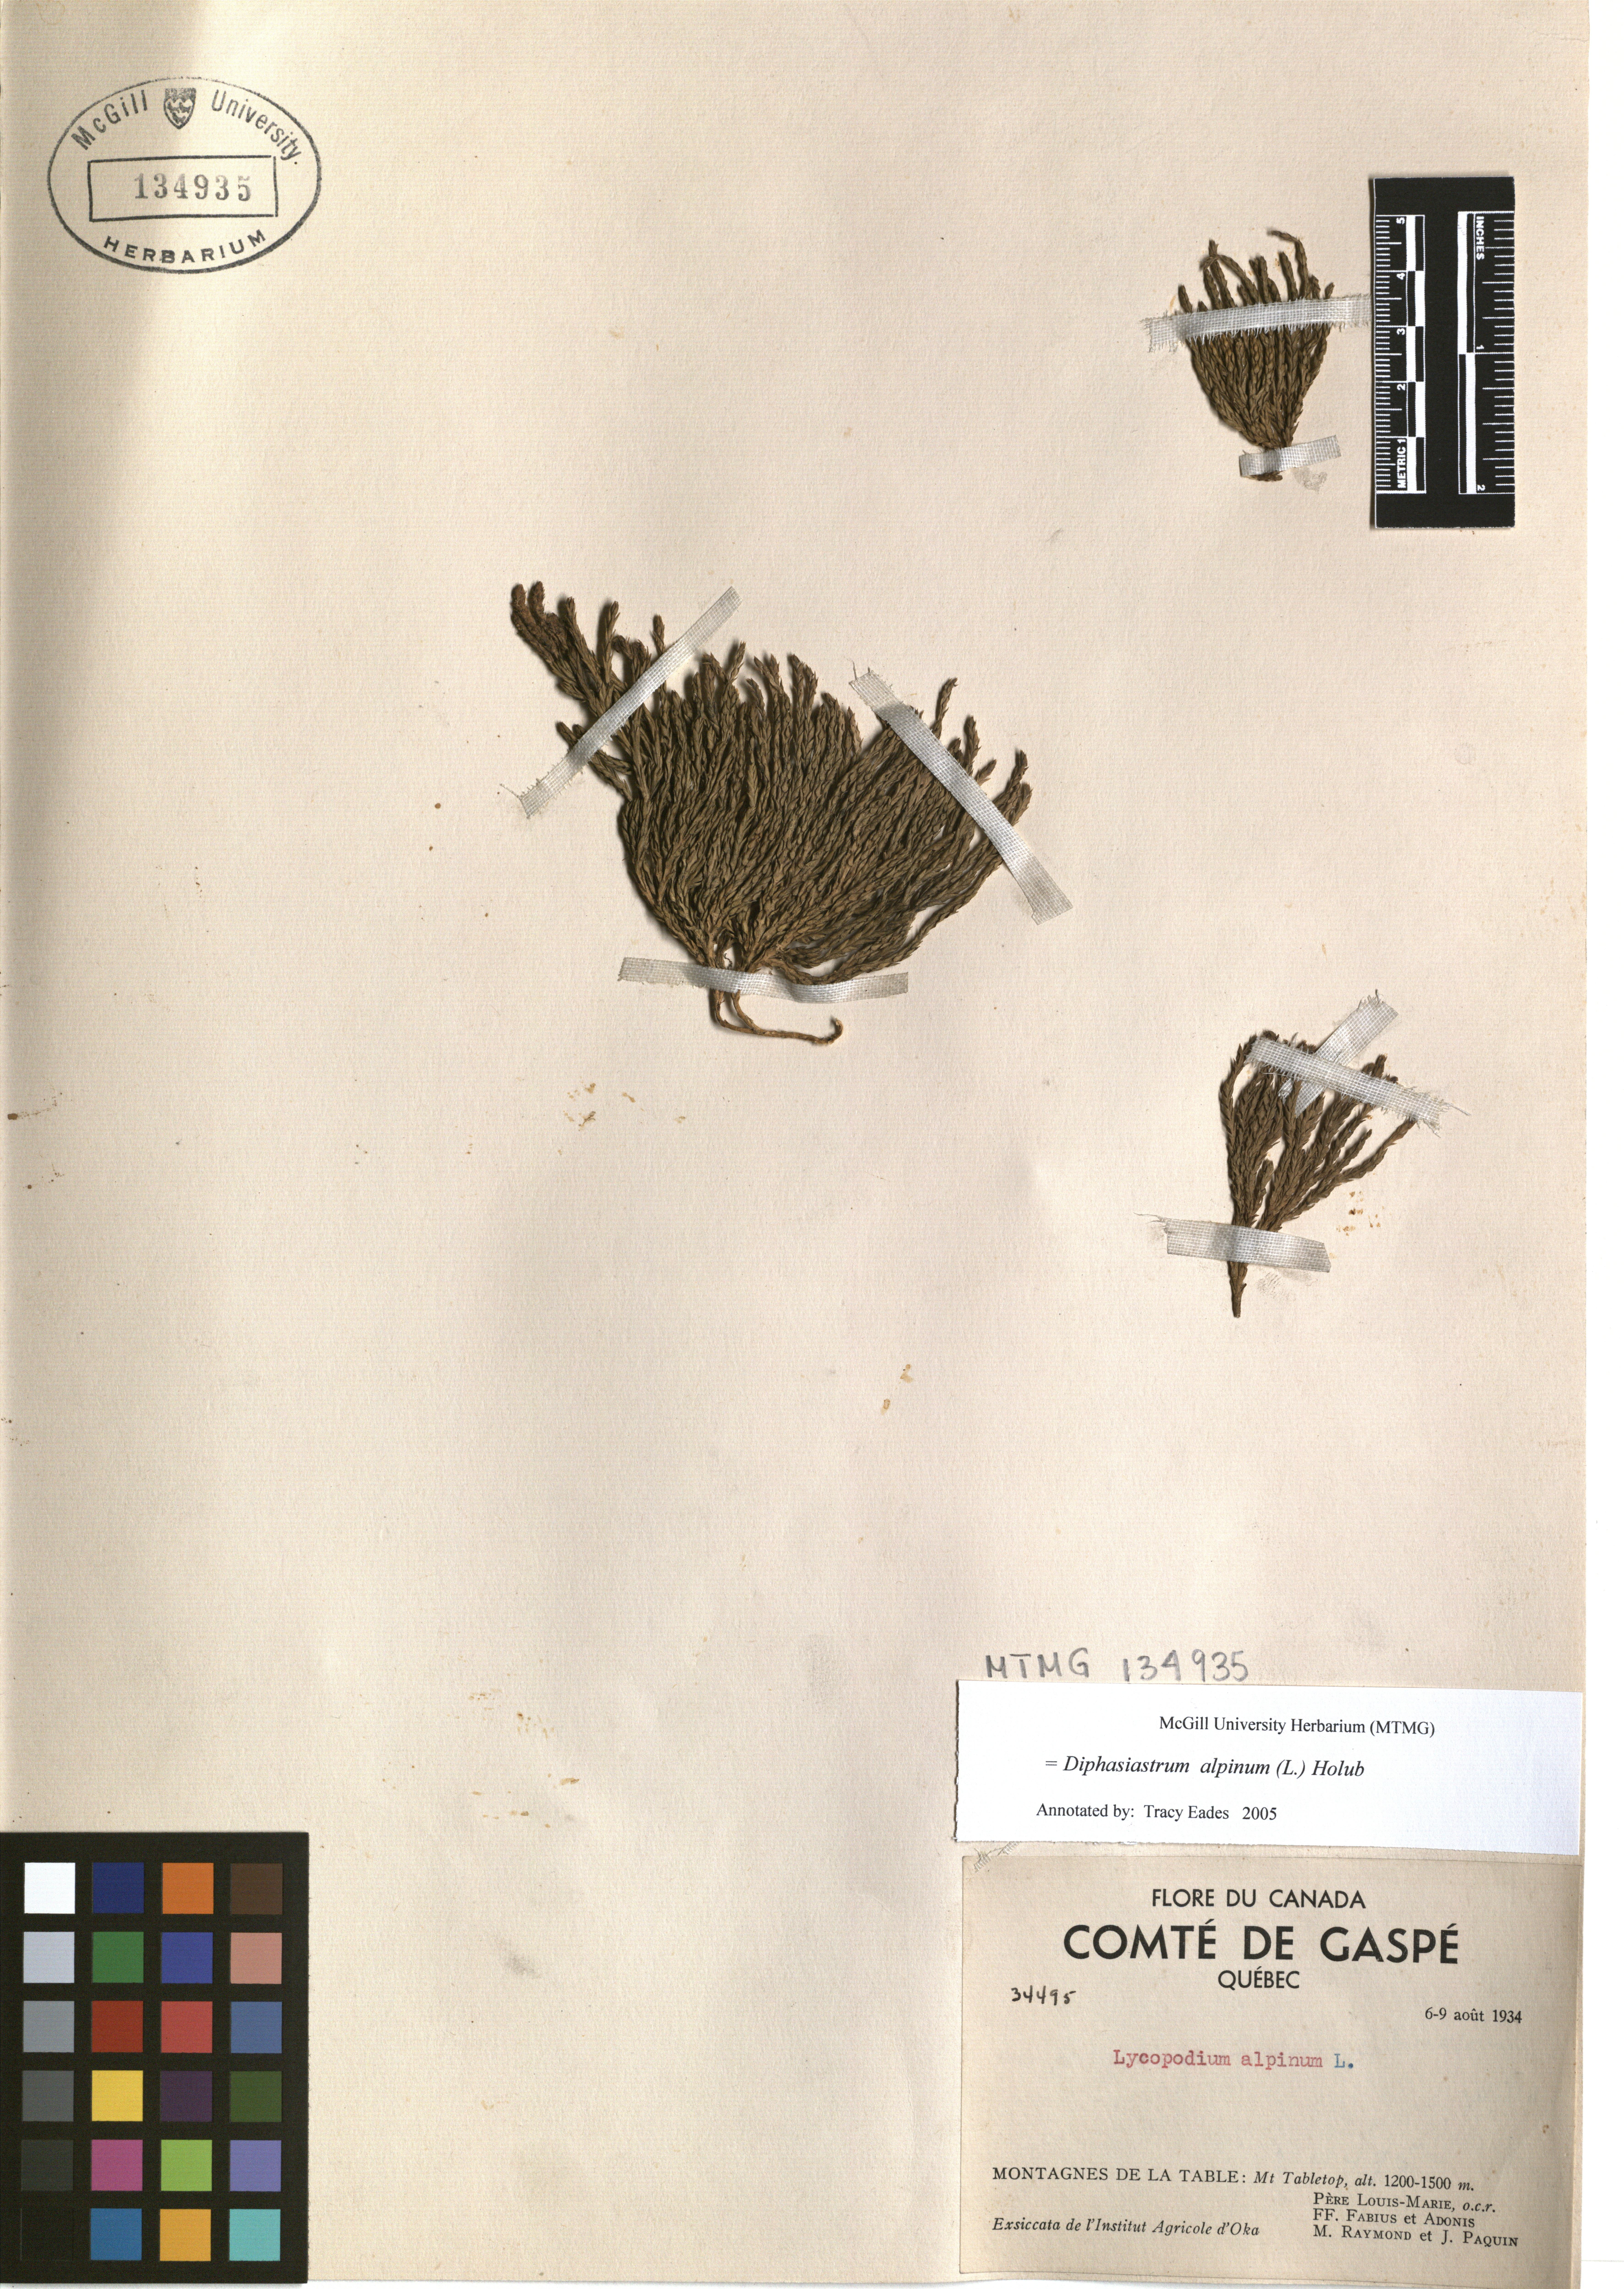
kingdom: Plantae
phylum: Tracheophyta
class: Lycopodiopsida
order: Lycopodiales
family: Lycopodiaceae
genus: Diphasiastrum
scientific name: Diphasiastrum alpinum
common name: Alpine clubmoss
